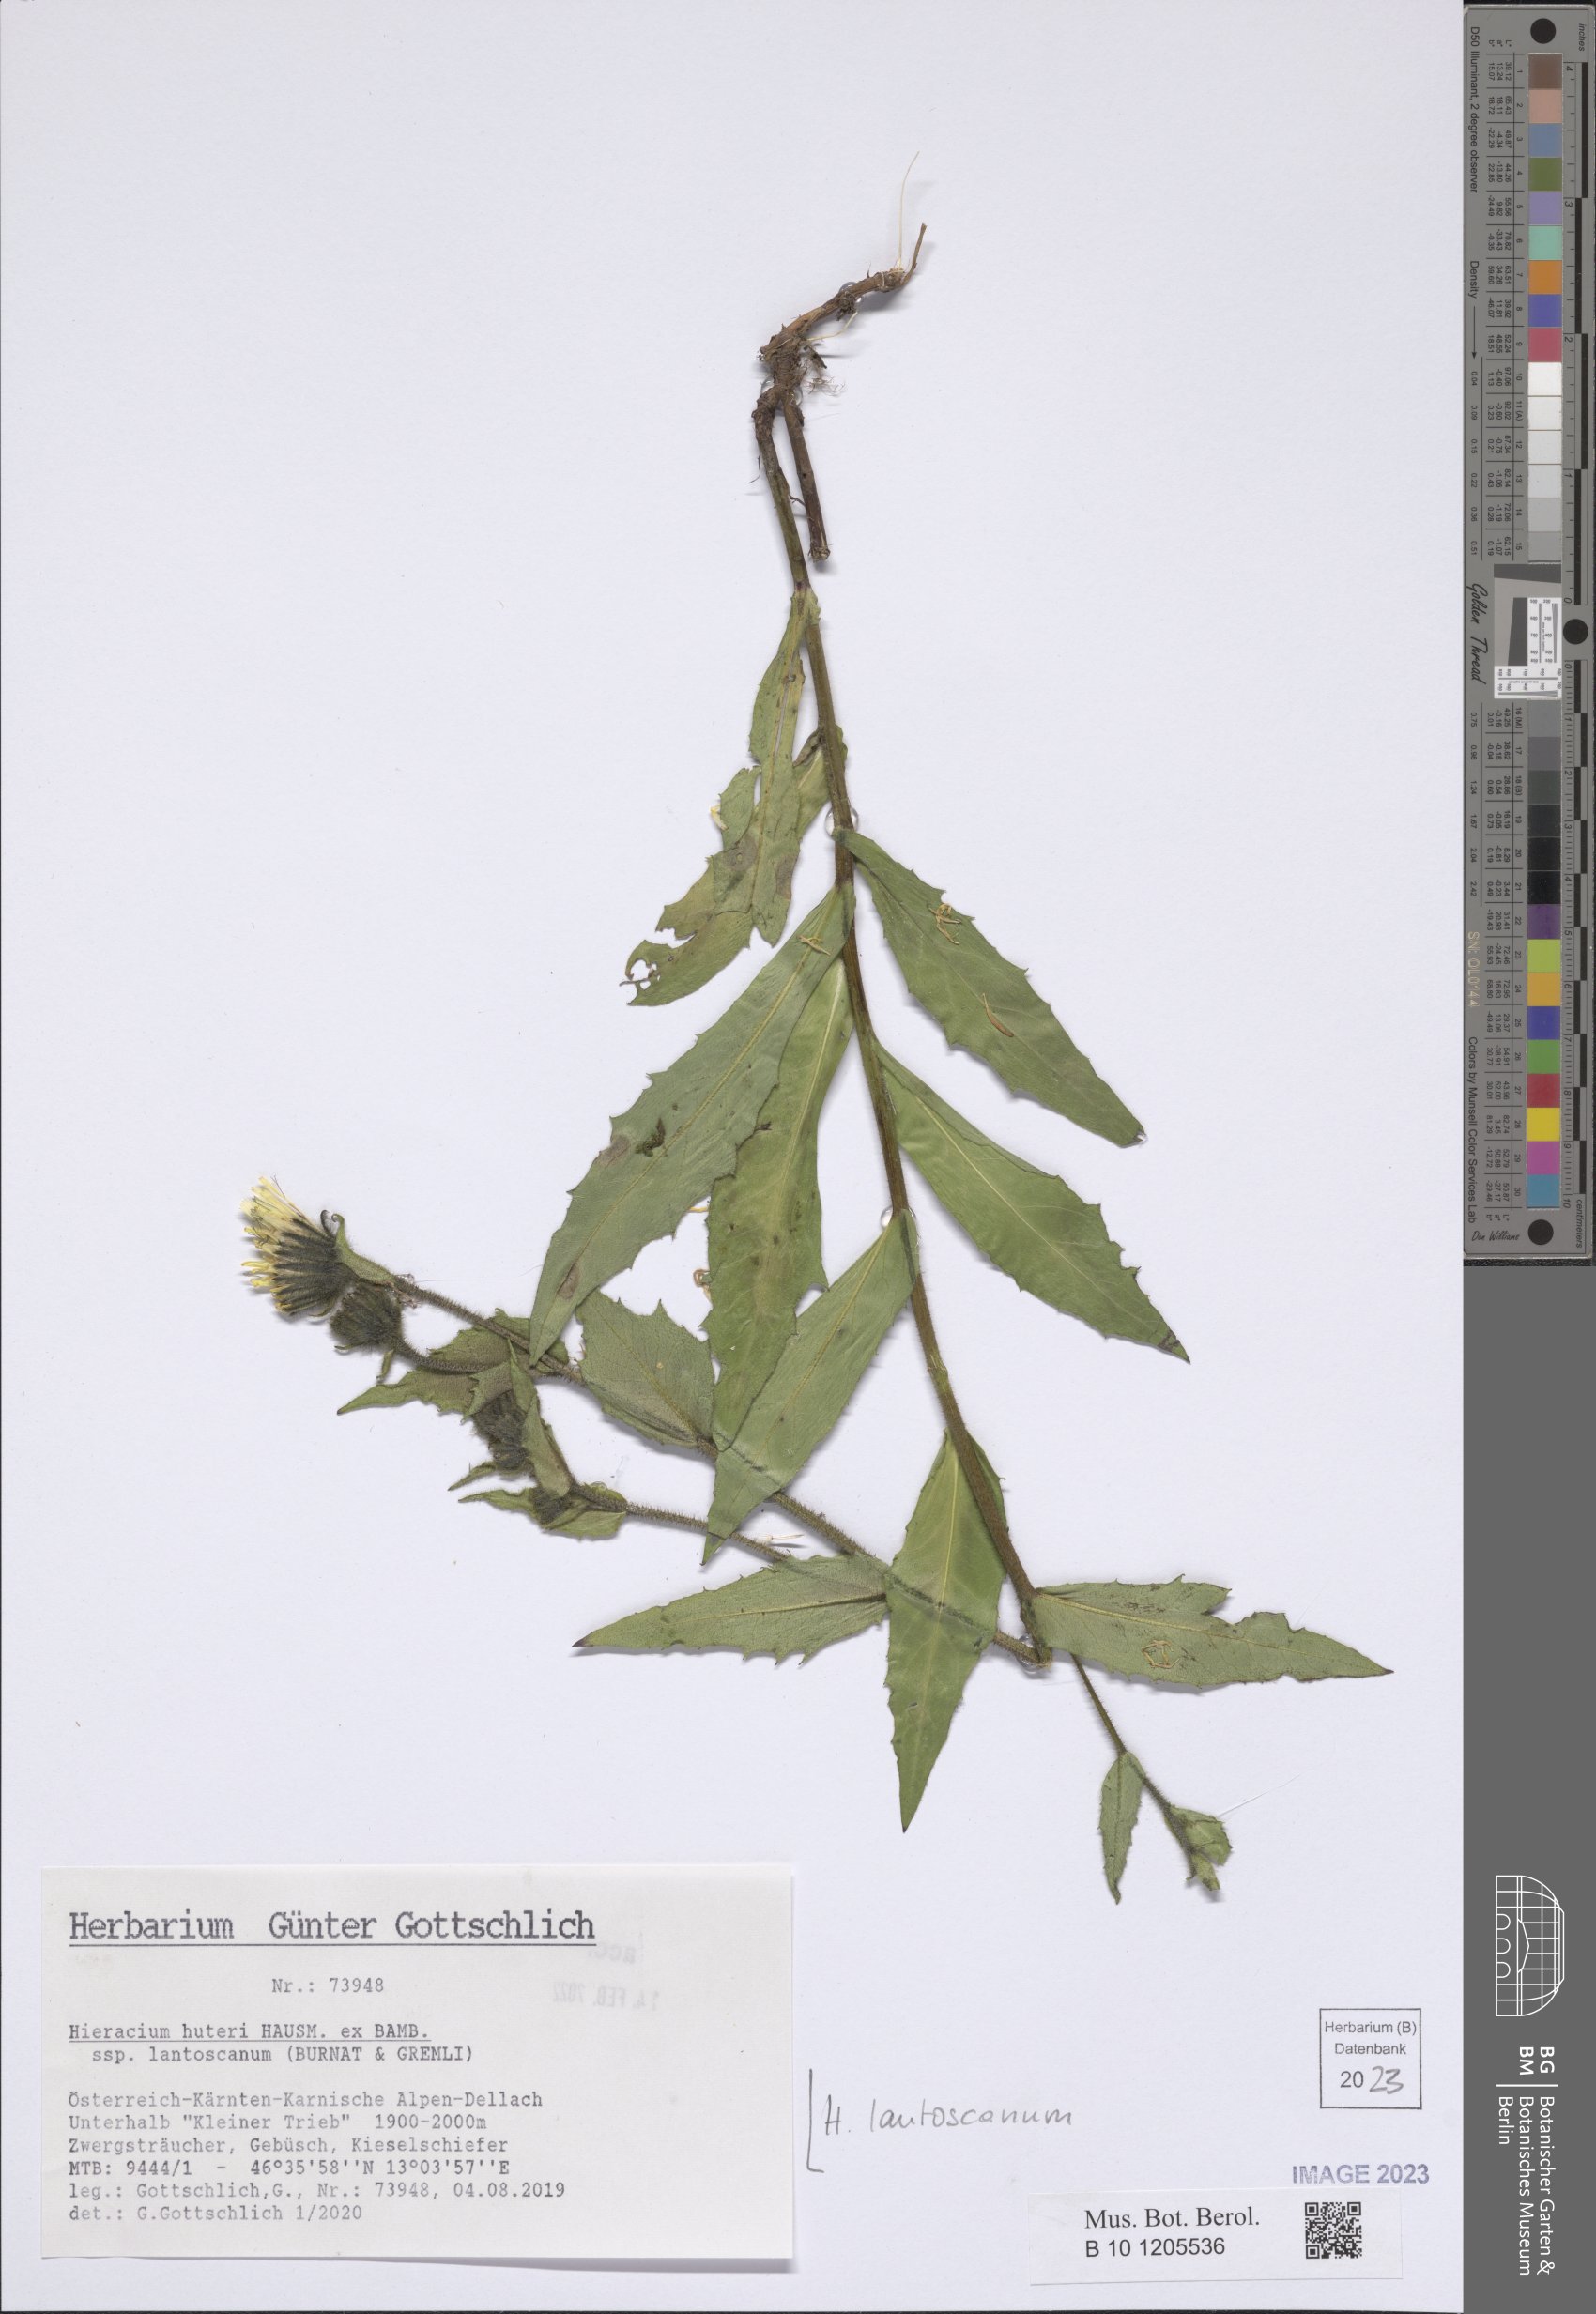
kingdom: Plantae
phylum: Tracheophyta
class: Magnoliopsida
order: Asterales
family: Asteraceae
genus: Schlagintweitia
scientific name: Schlagintweitia huteri
